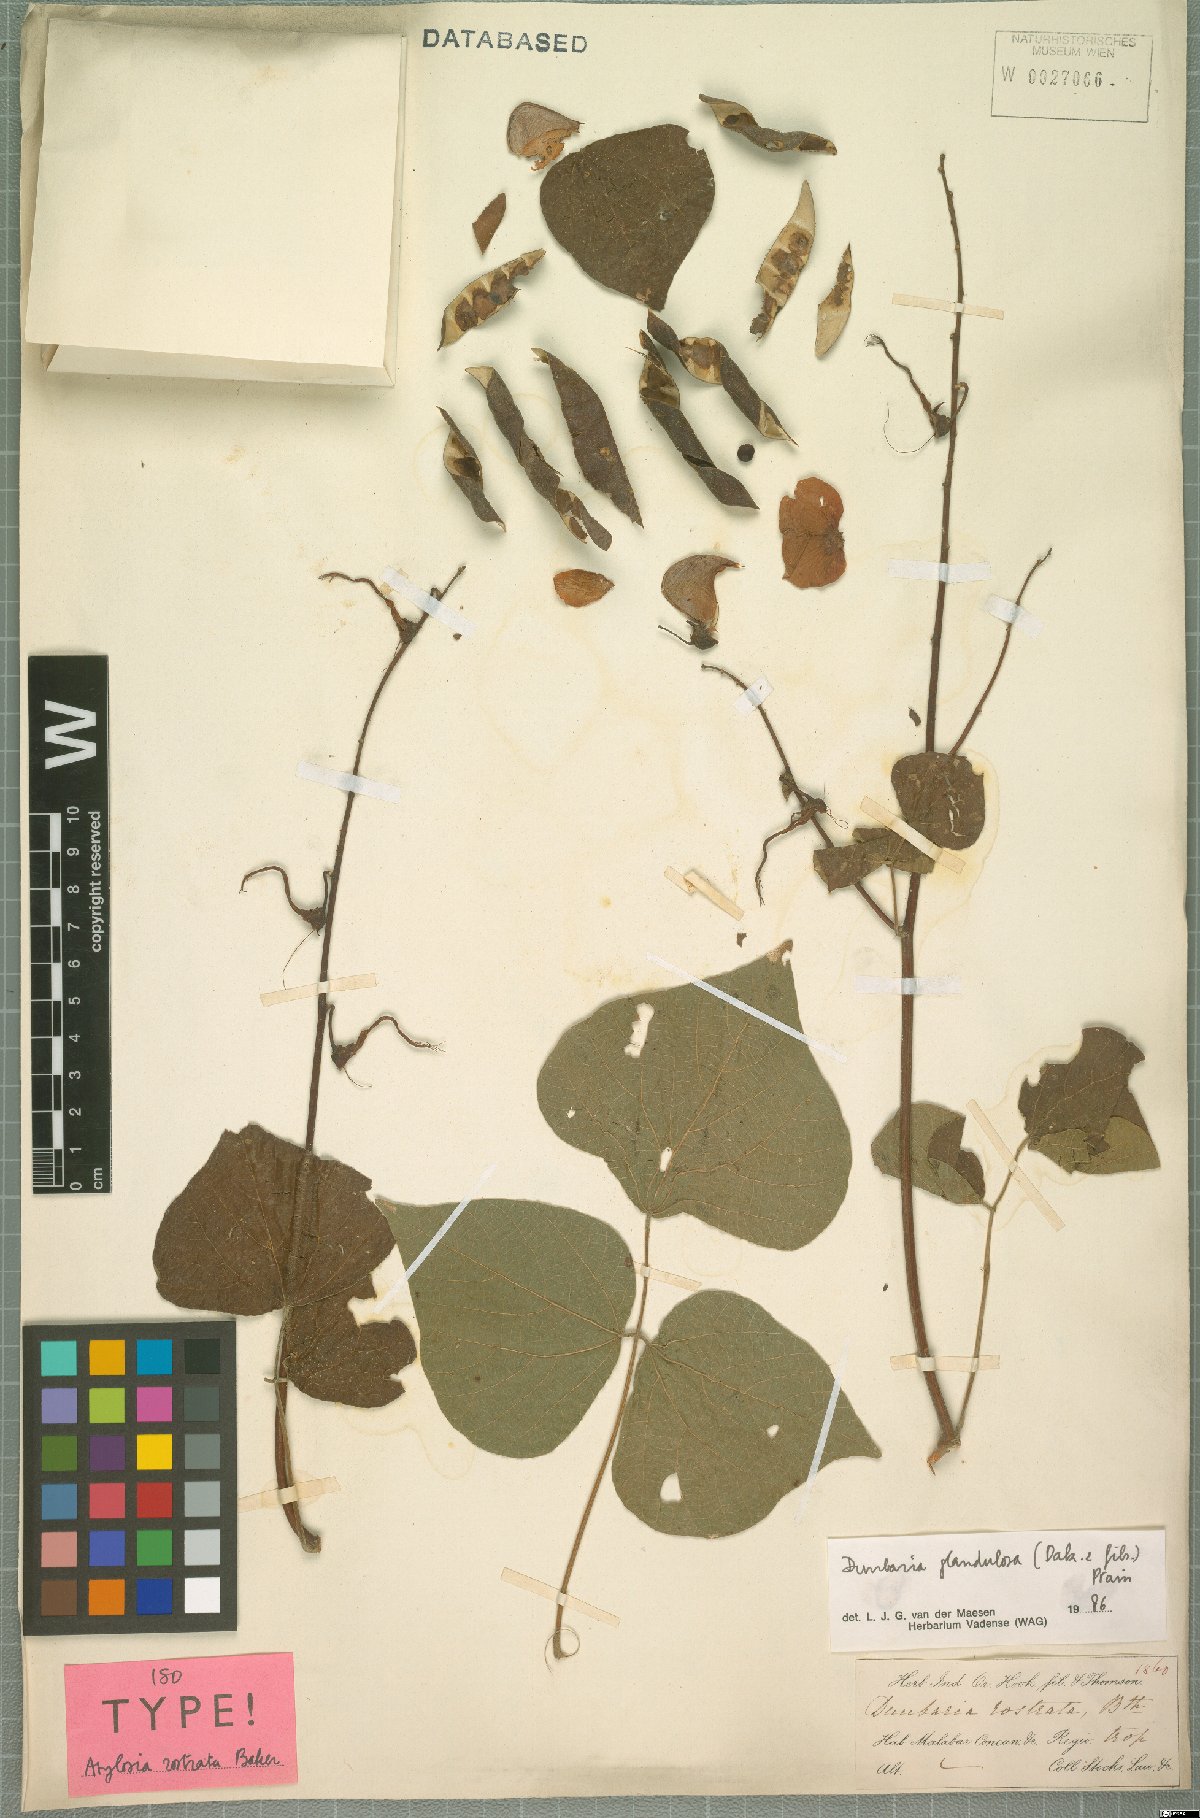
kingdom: Plantae
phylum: Tracheophyta
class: Magnoliopsida
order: Fabales
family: Fabaceae
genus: Dunbaria
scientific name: Dunbaria glandulosa
